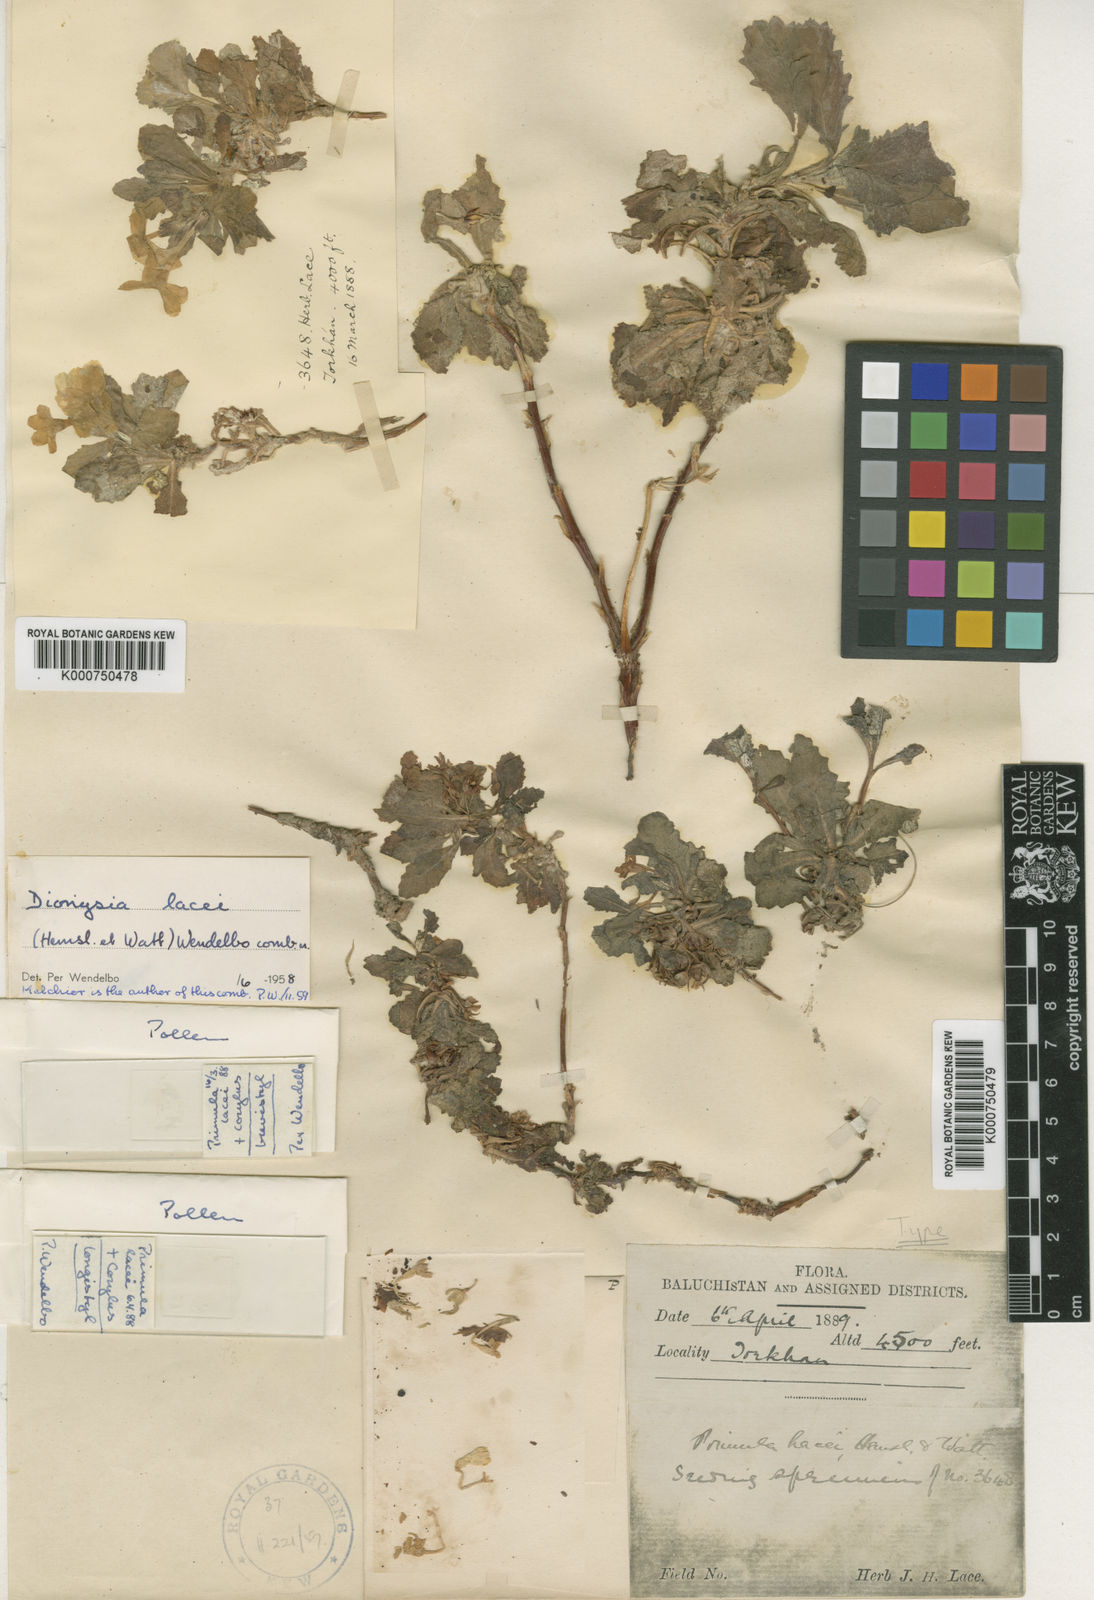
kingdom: Plantae
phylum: Tracheophyta
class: Magnoliopsida
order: Ericales
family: Primulaceae
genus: Dionysia
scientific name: Dionysia lacei
